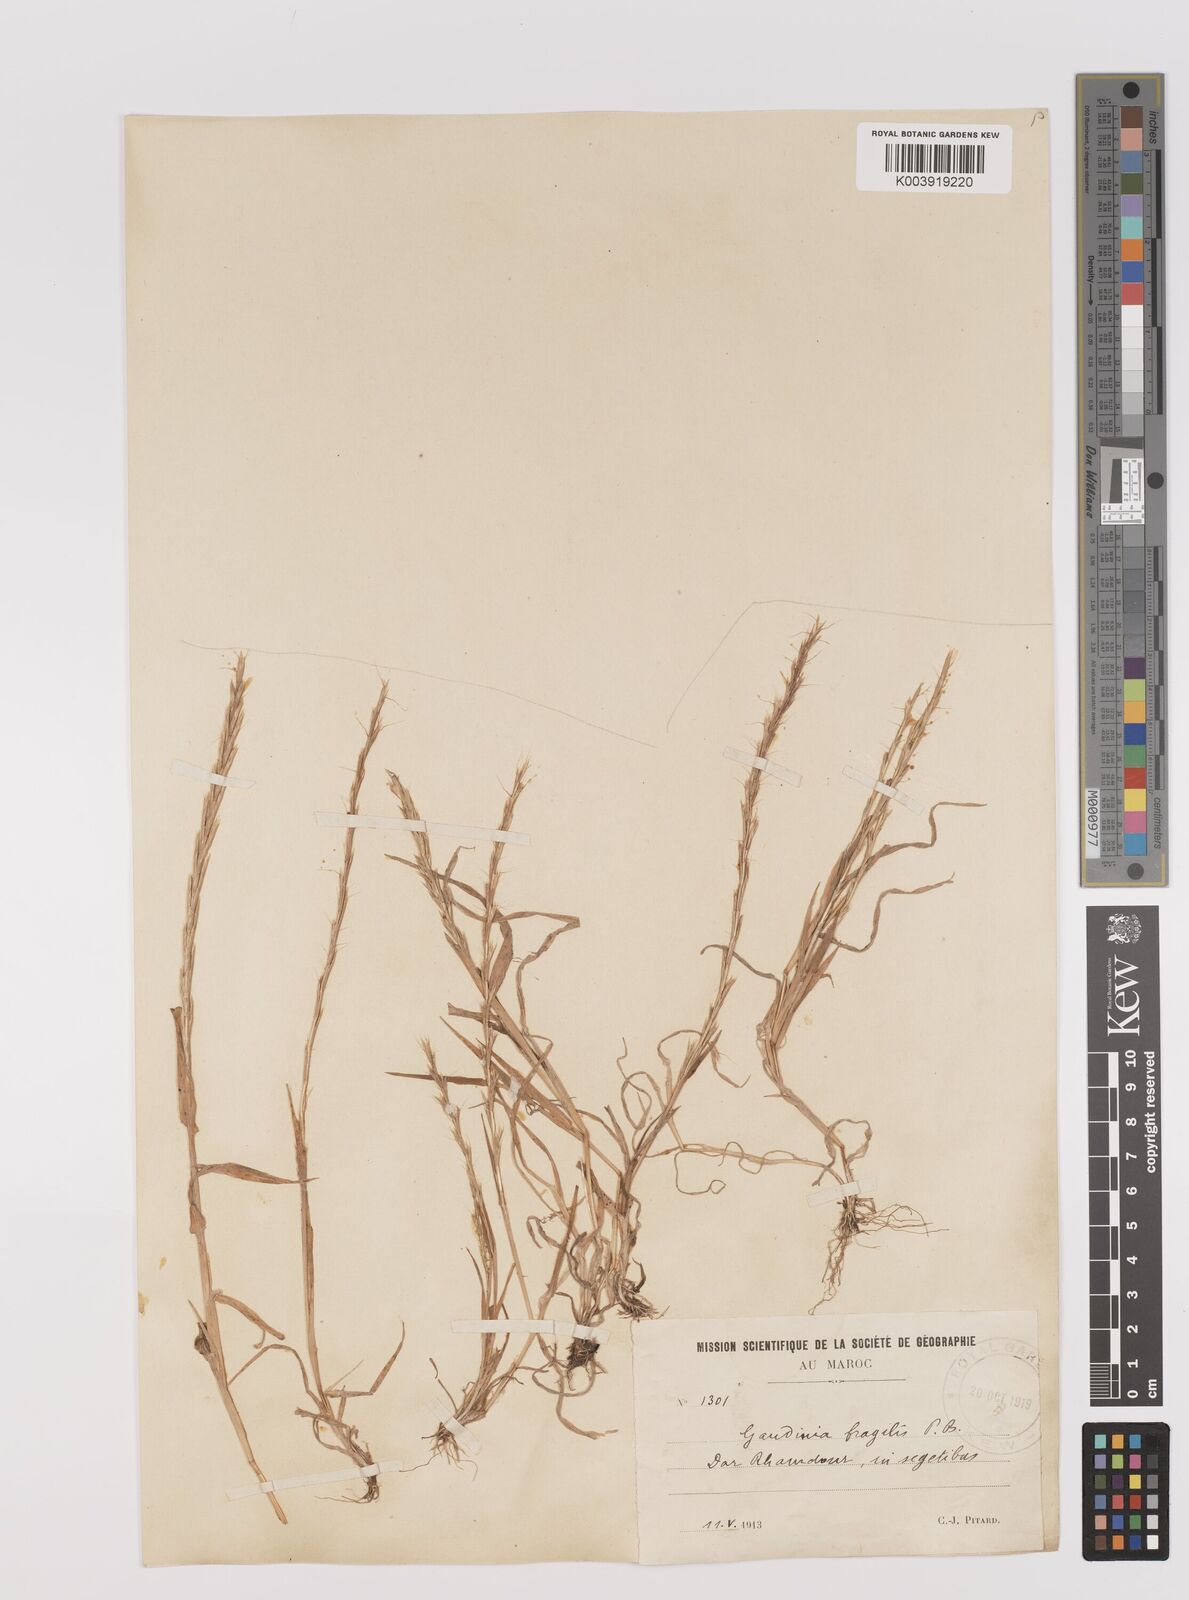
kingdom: Plantae
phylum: Tracheophyta
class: Liliopsida
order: Poales
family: Poaceae
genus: Gaudinia
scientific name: Gaudinia fragilis
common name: French oat-grass
